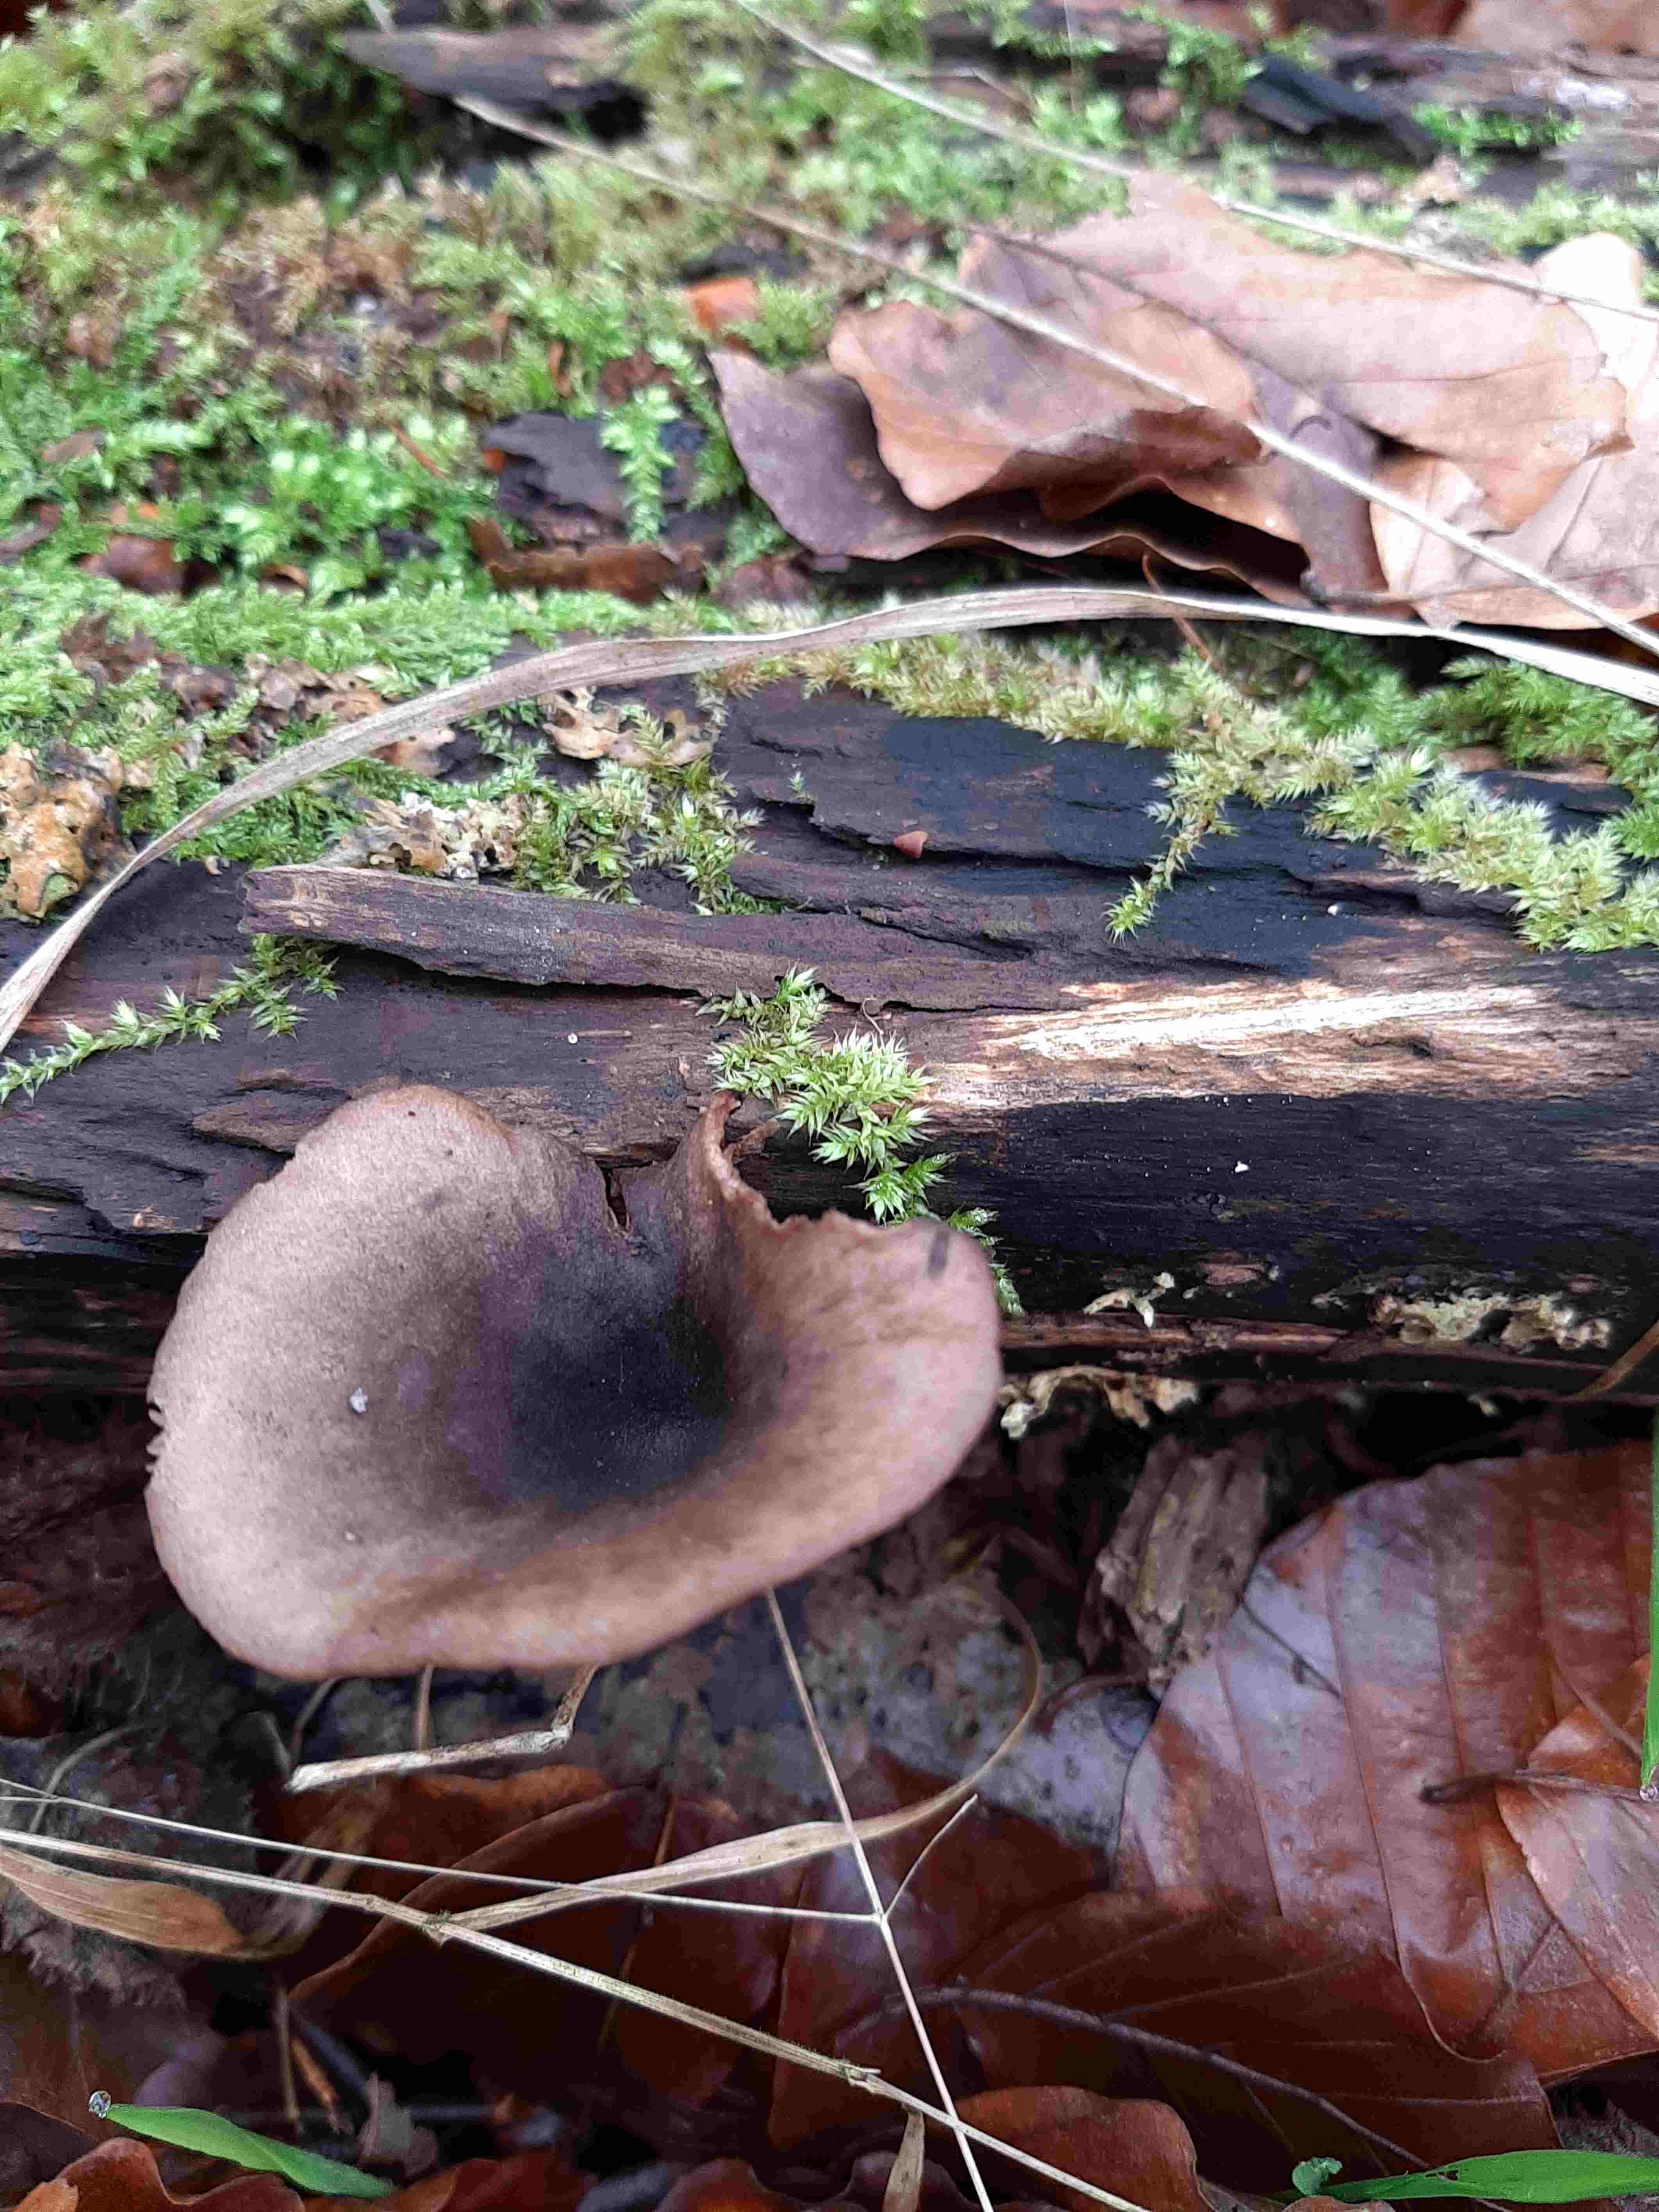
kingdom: Fungi
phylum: Basidiomycota
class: Agaricomycetes
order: Agaricales
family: Pseudoclitocybaceae
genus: Pseudoclitocybe
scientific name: Pseudoclitocybe cyathiformis
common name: almindelig bægertragthat
